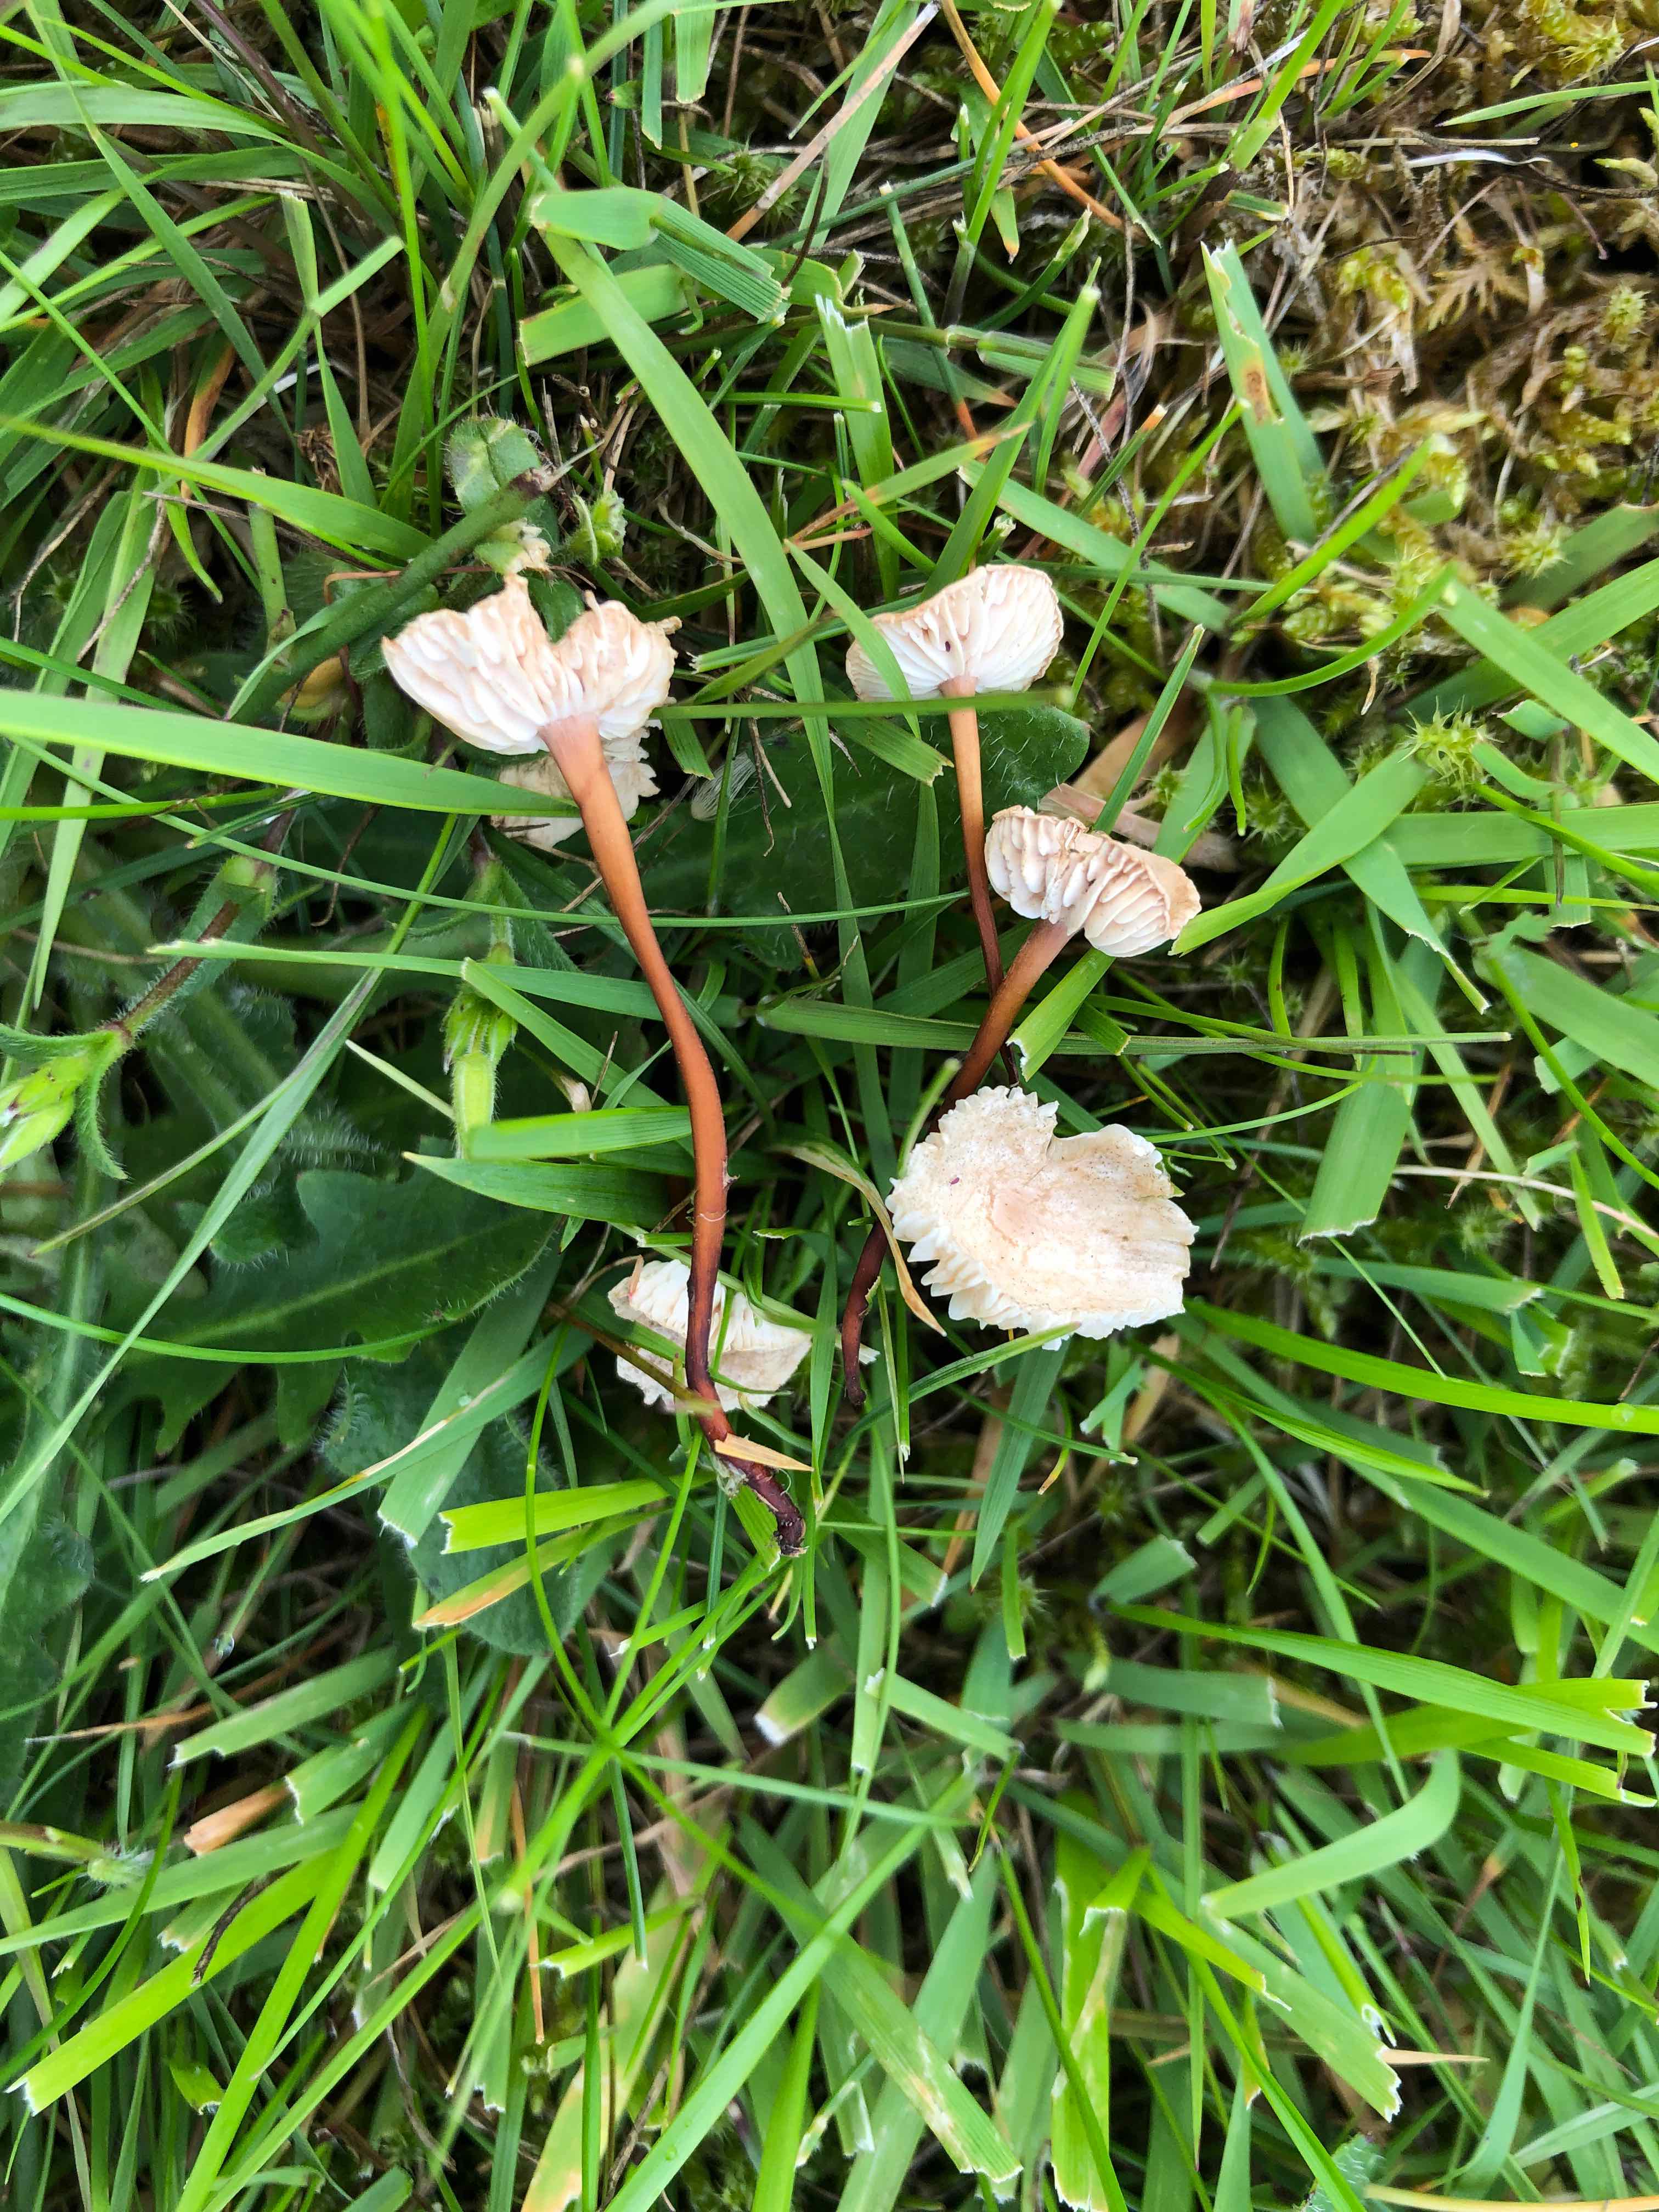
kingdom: Fungi
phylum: Basidiomycota
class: Agaricomycetes
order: Agaricales
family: Omphalotaceae
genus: Mycetinis
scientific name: Mycetinis scorodonius
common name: lille løghat
